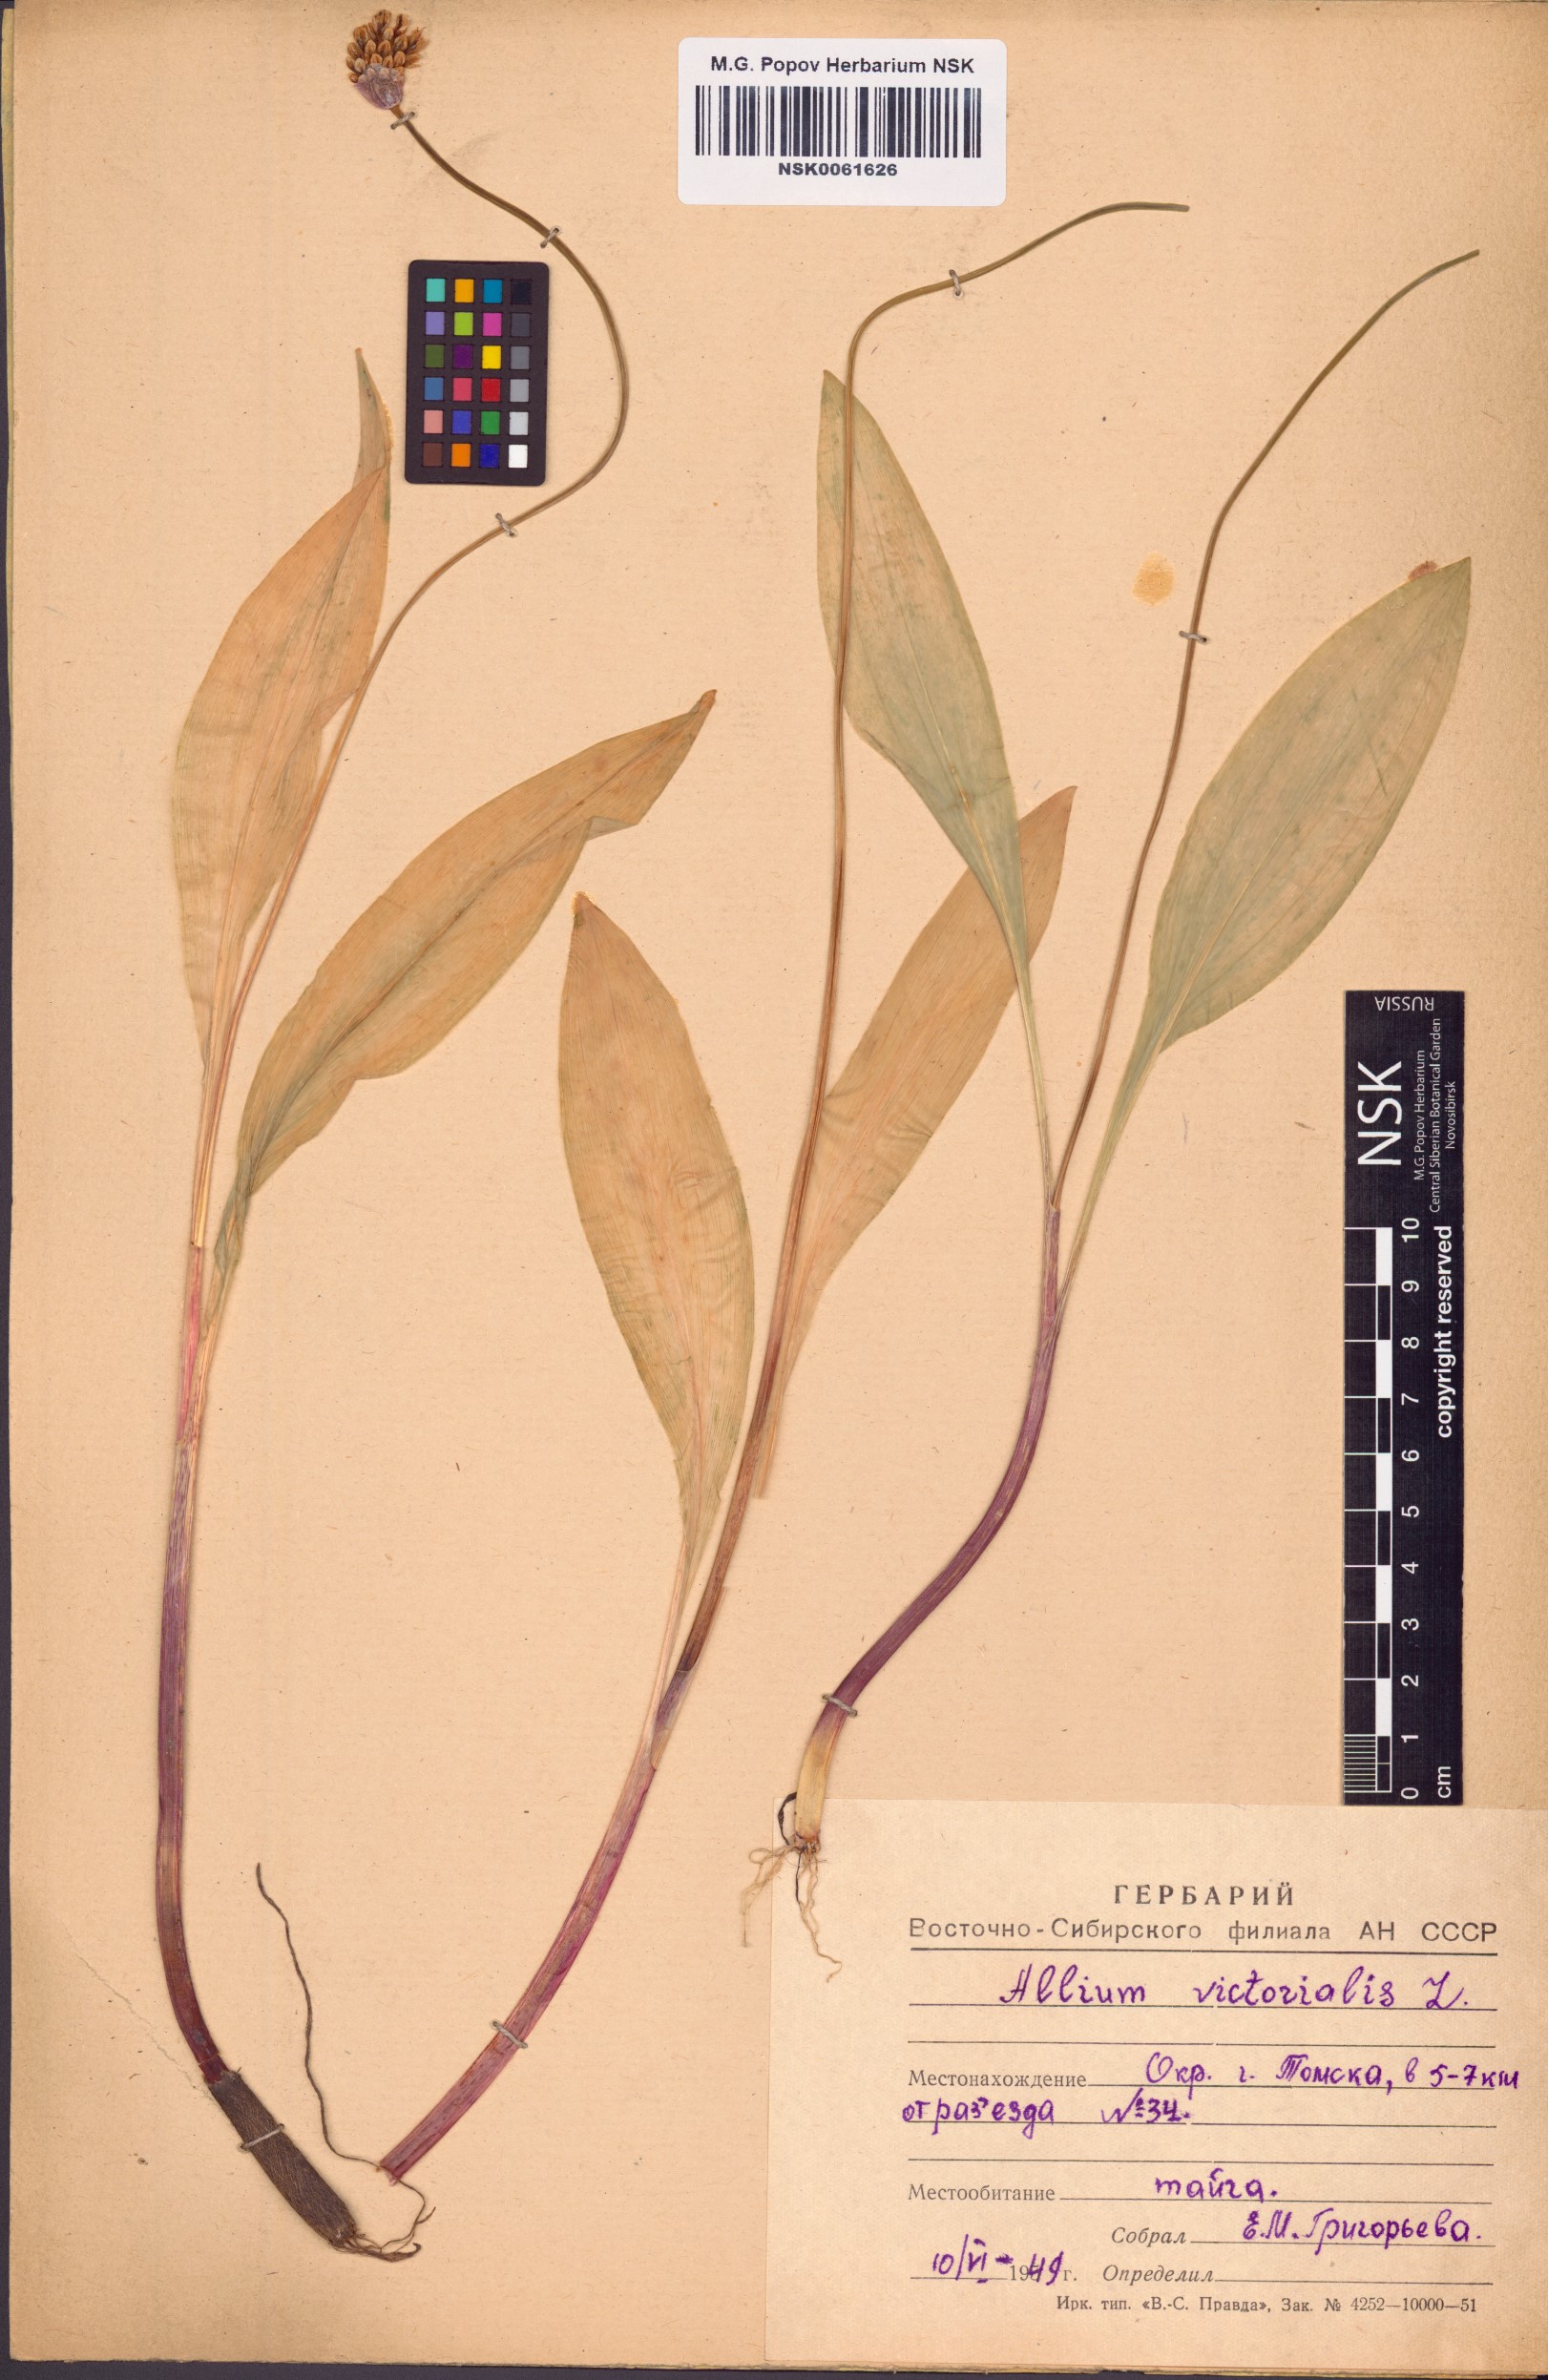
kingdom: Plantae
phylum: Tracheophyta
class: Liliopsida
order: Asparagales
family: Amaryllidaceae
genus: Allium
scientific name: Allium victorialis
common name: Alpine leek
